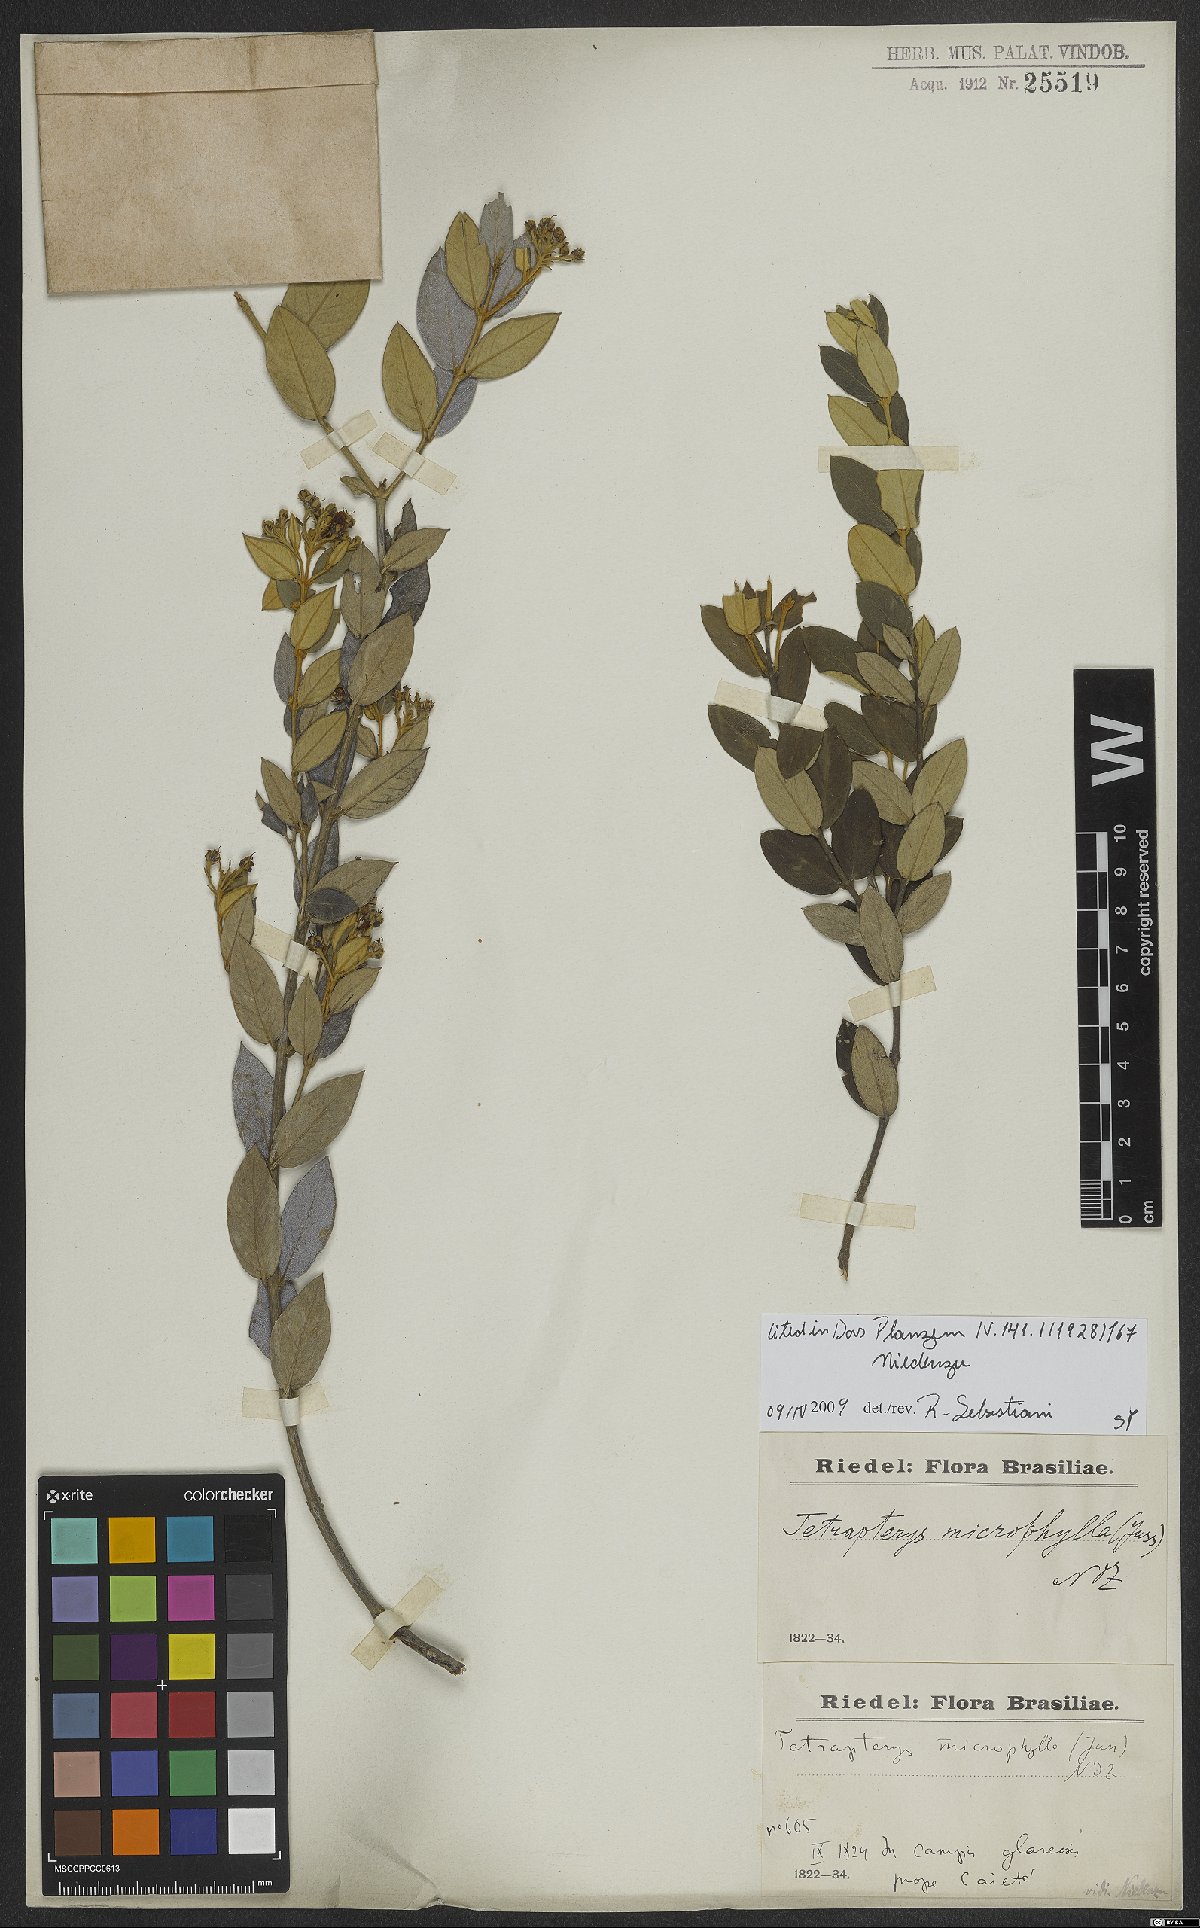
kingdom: Plantae
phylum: Tracheophyta
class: Magnoliopsida
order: Malpighiales
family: Malpighiaceae
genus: Glicophyllum
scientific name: Glicophyllum microphyllum
